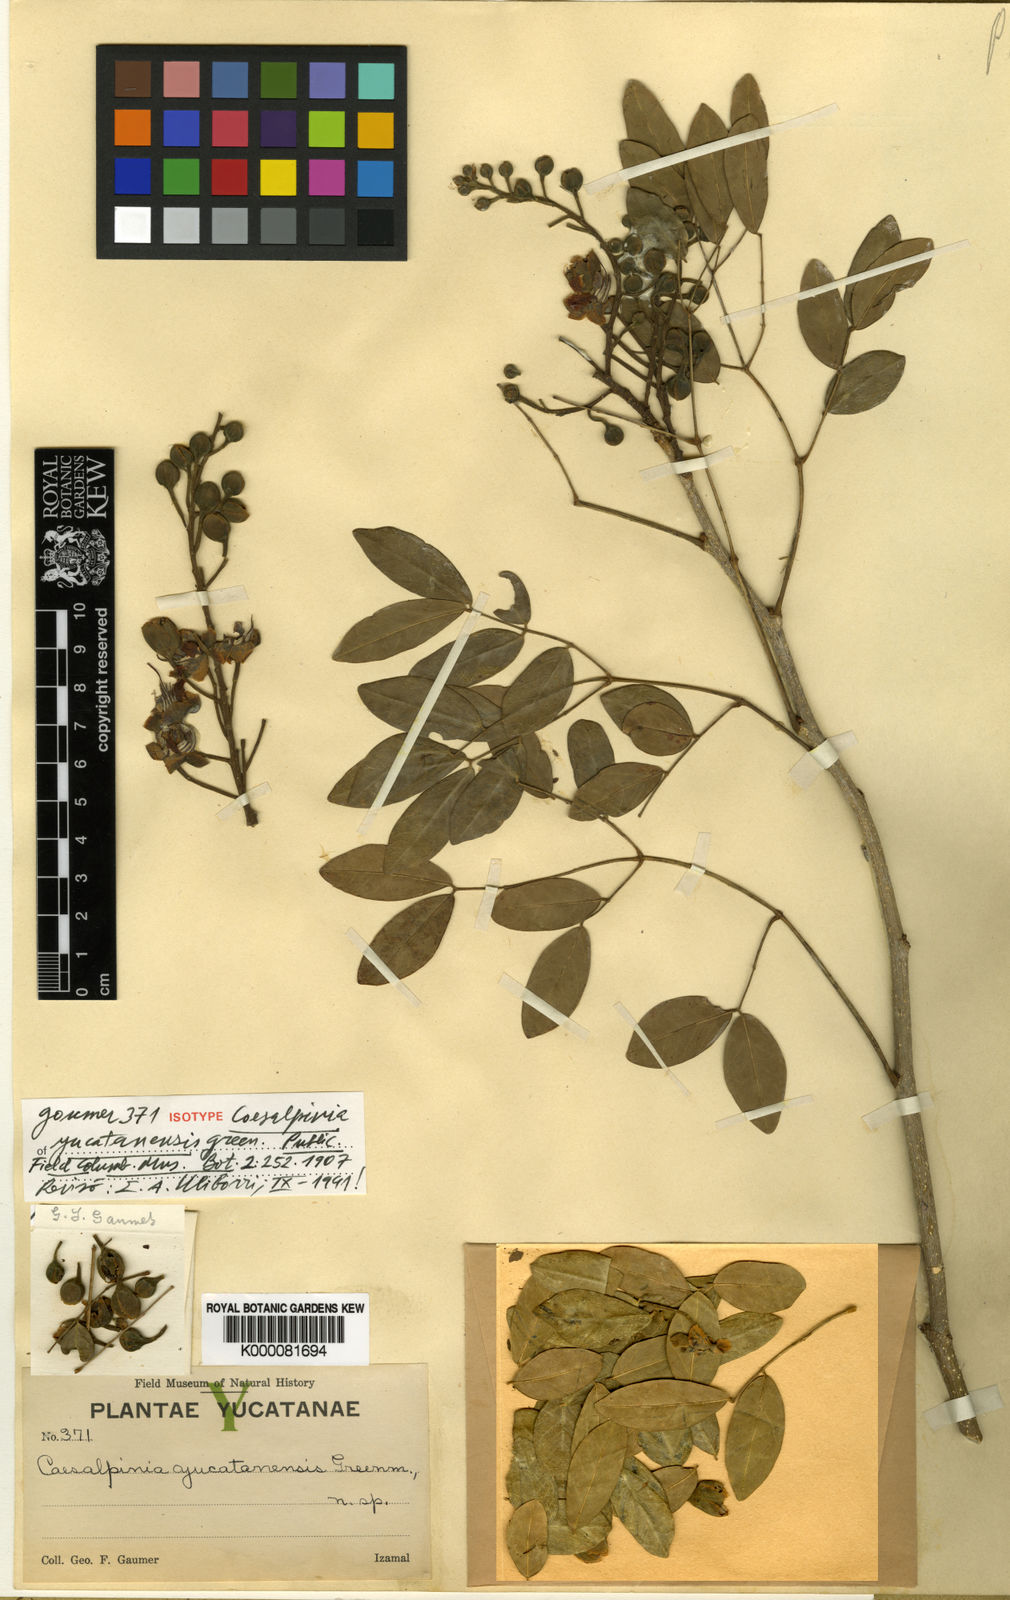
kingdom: Plantae
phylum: Tracheophyta
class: Magnoliopsida
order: Fabales
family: Fabaceae
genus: Erythrostemon
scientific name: Erythrostemon yucatanensis
